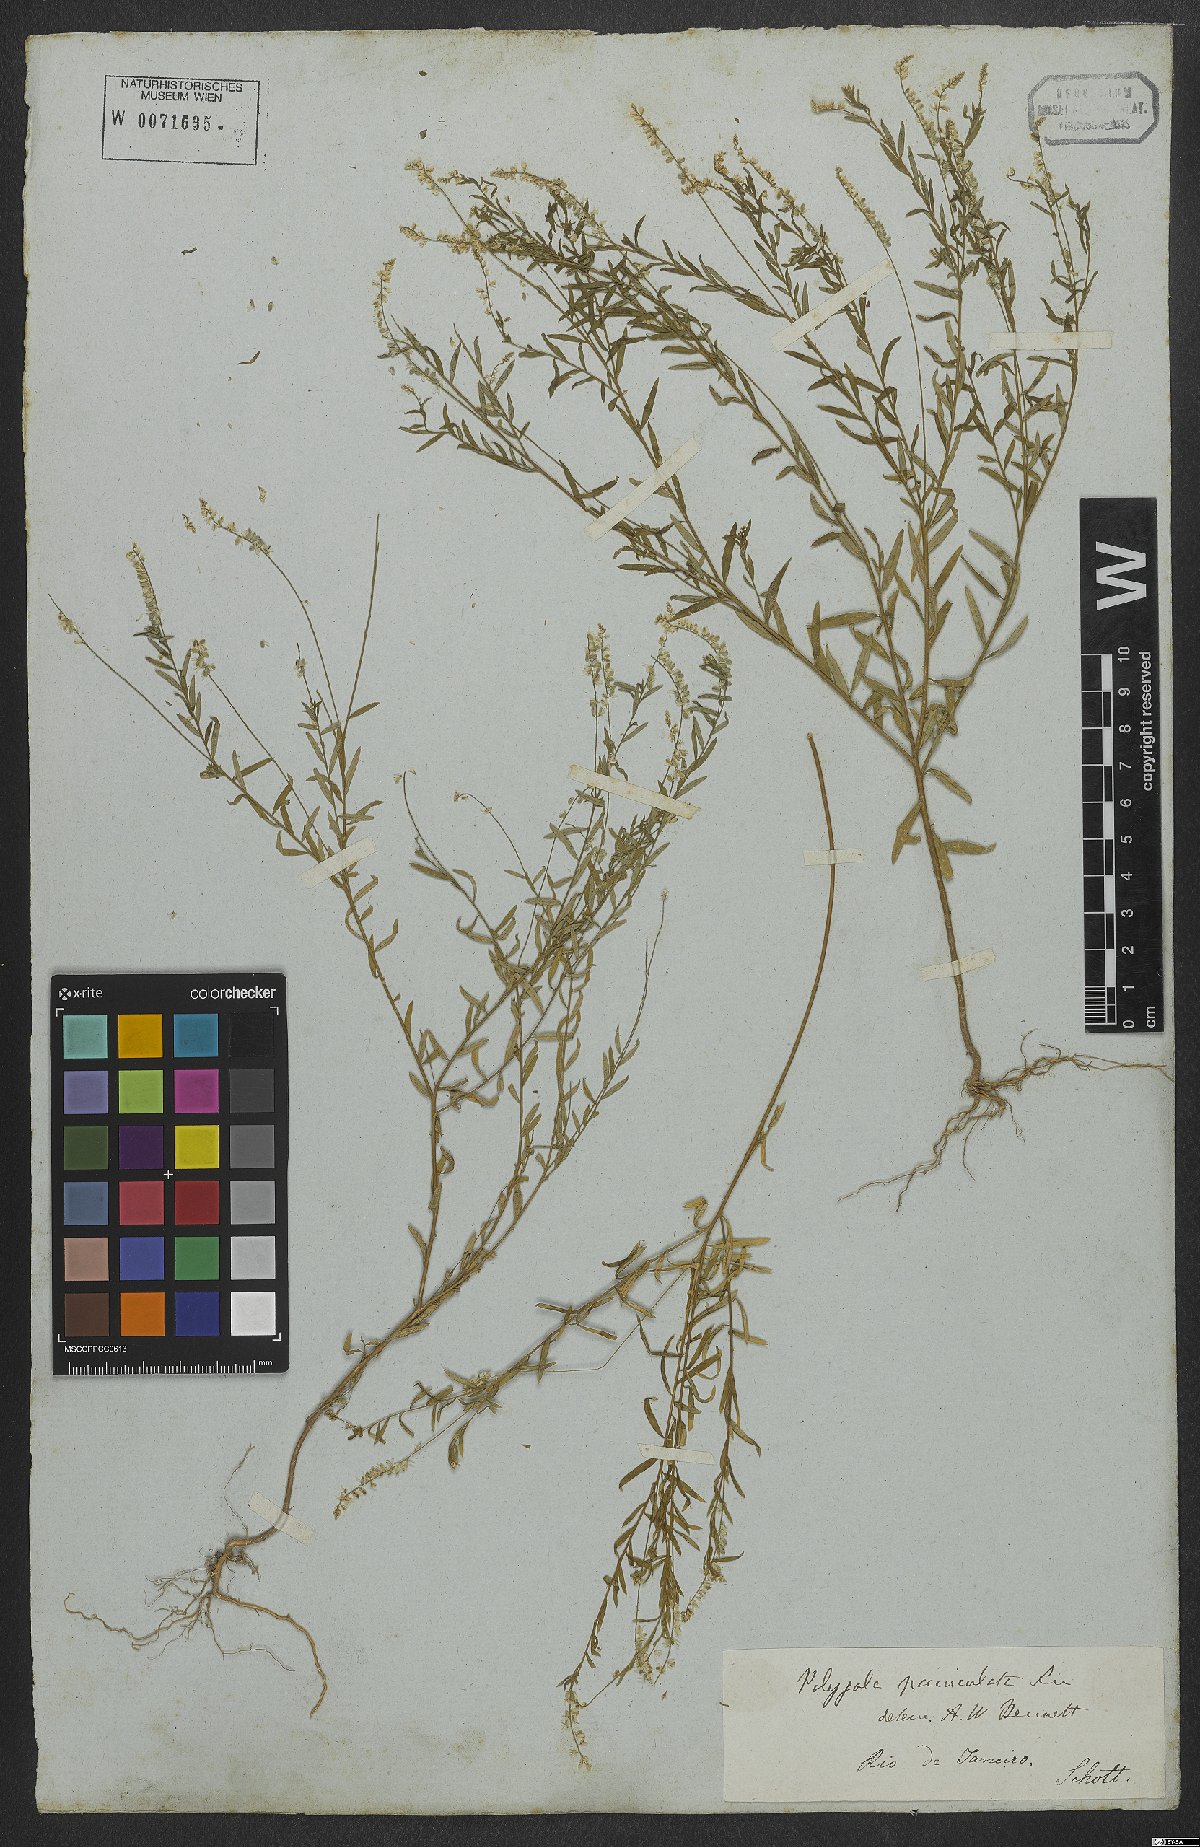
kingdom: Plantae
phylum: Tracheophyta
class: Magnoliopsida
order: Fabales
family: Polygalaceae
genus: Polygala
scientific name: Polygala exilis
